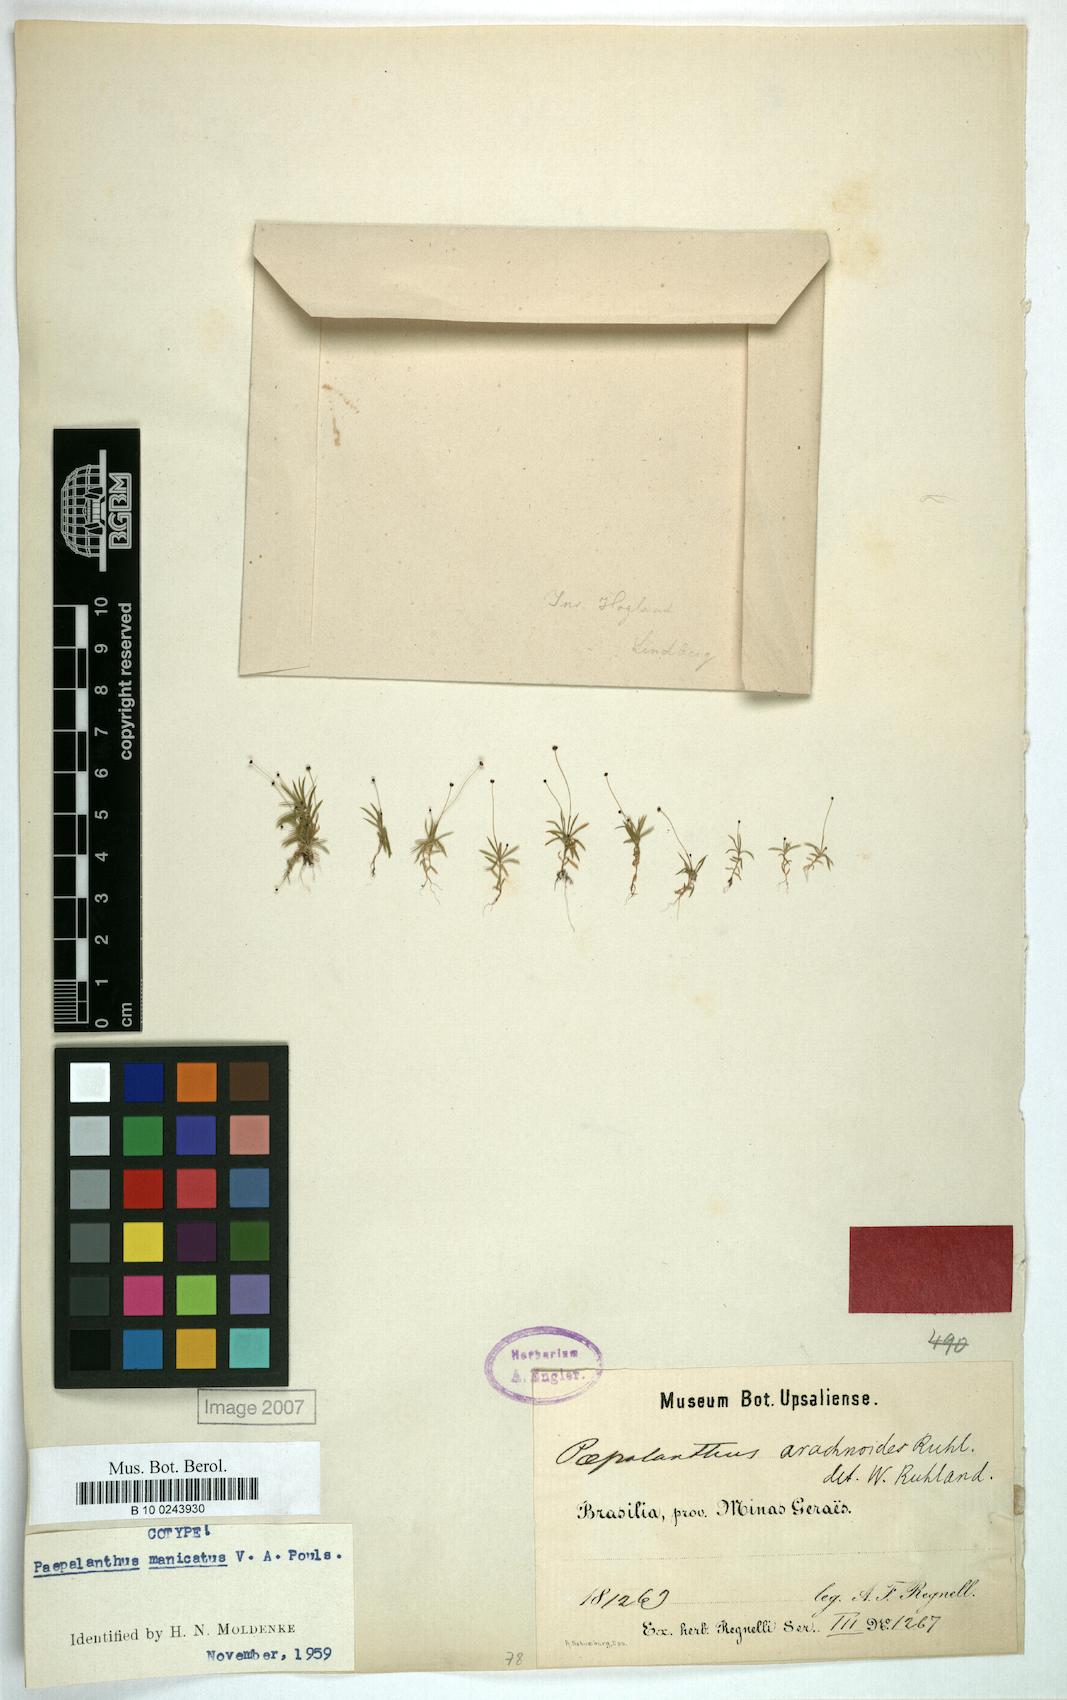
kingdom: Plantae
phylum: Tracheophyta
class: Liliopsida
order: Poales
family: Eriocaulaceae
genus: Paepalanthus
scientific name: Paepalanthus manicatus
